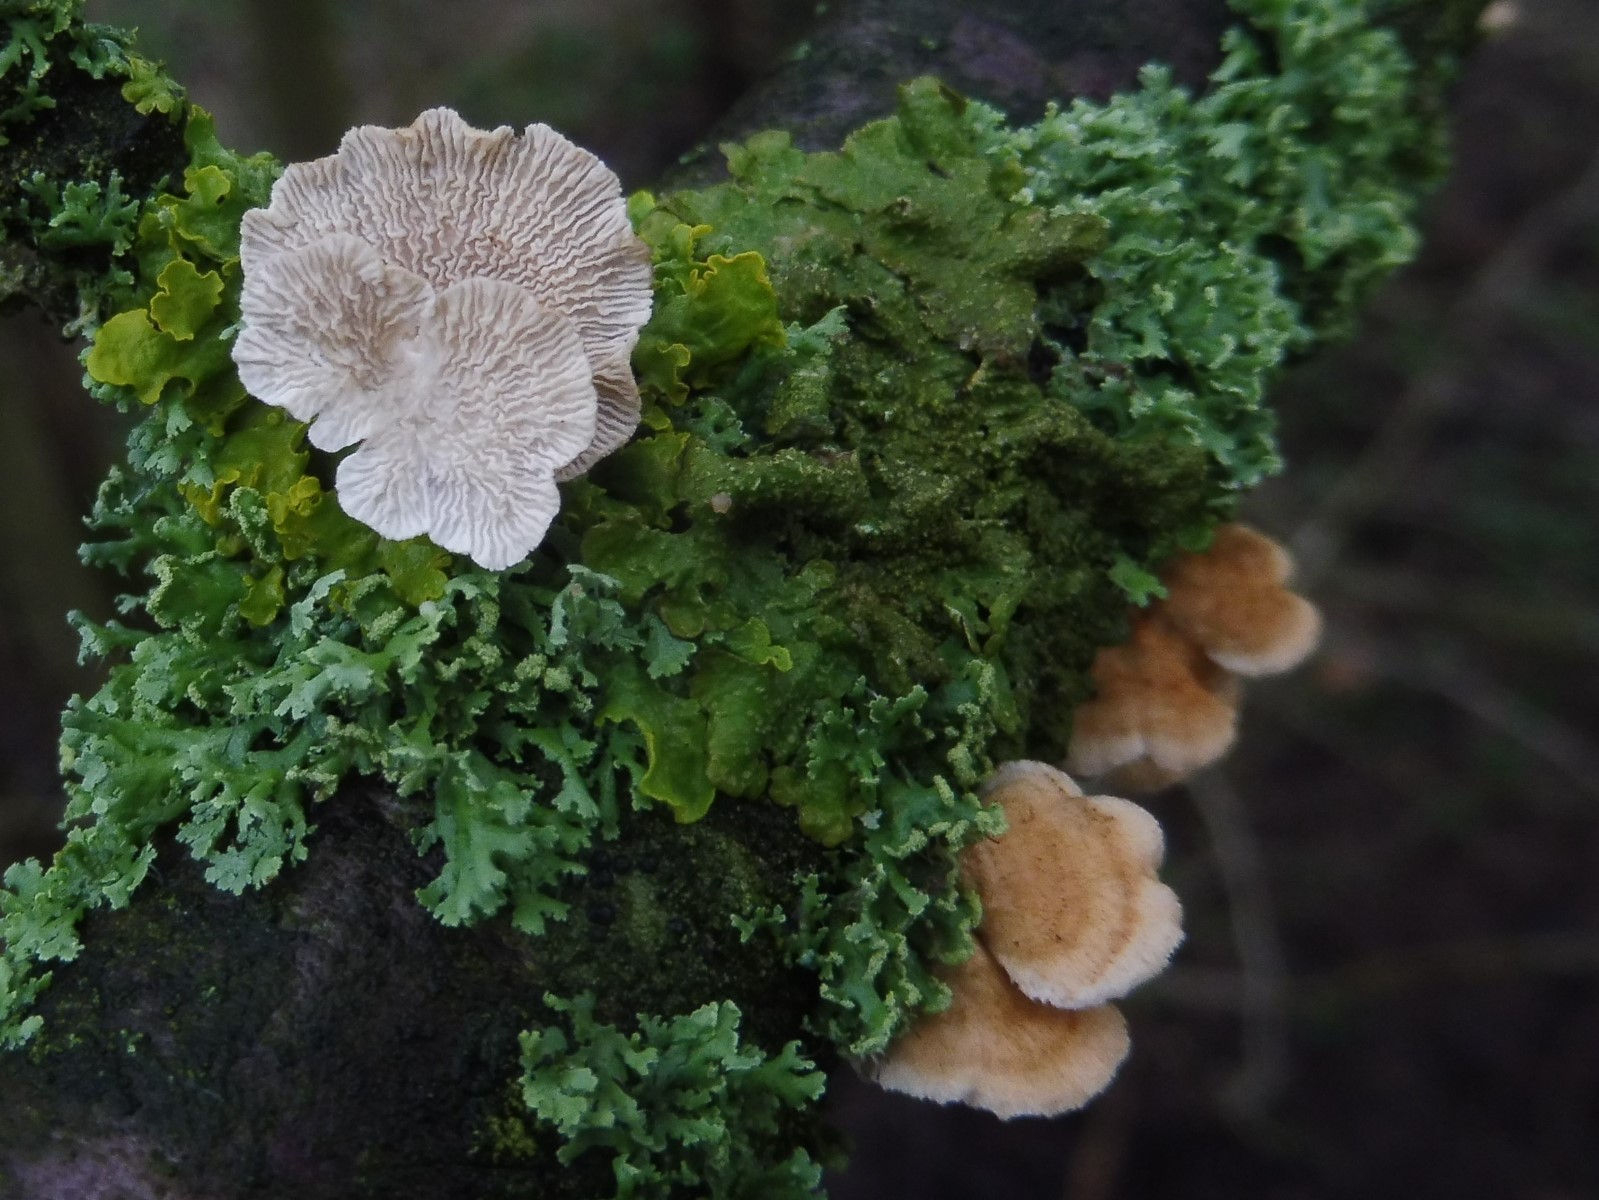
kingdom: Fungi
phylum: Basidiomycota
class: Agaricomycetes
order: Amylocorticiales
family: Amylocorticiaceae
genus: Plicaturopsis
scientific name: Plicaturopsis crispa
